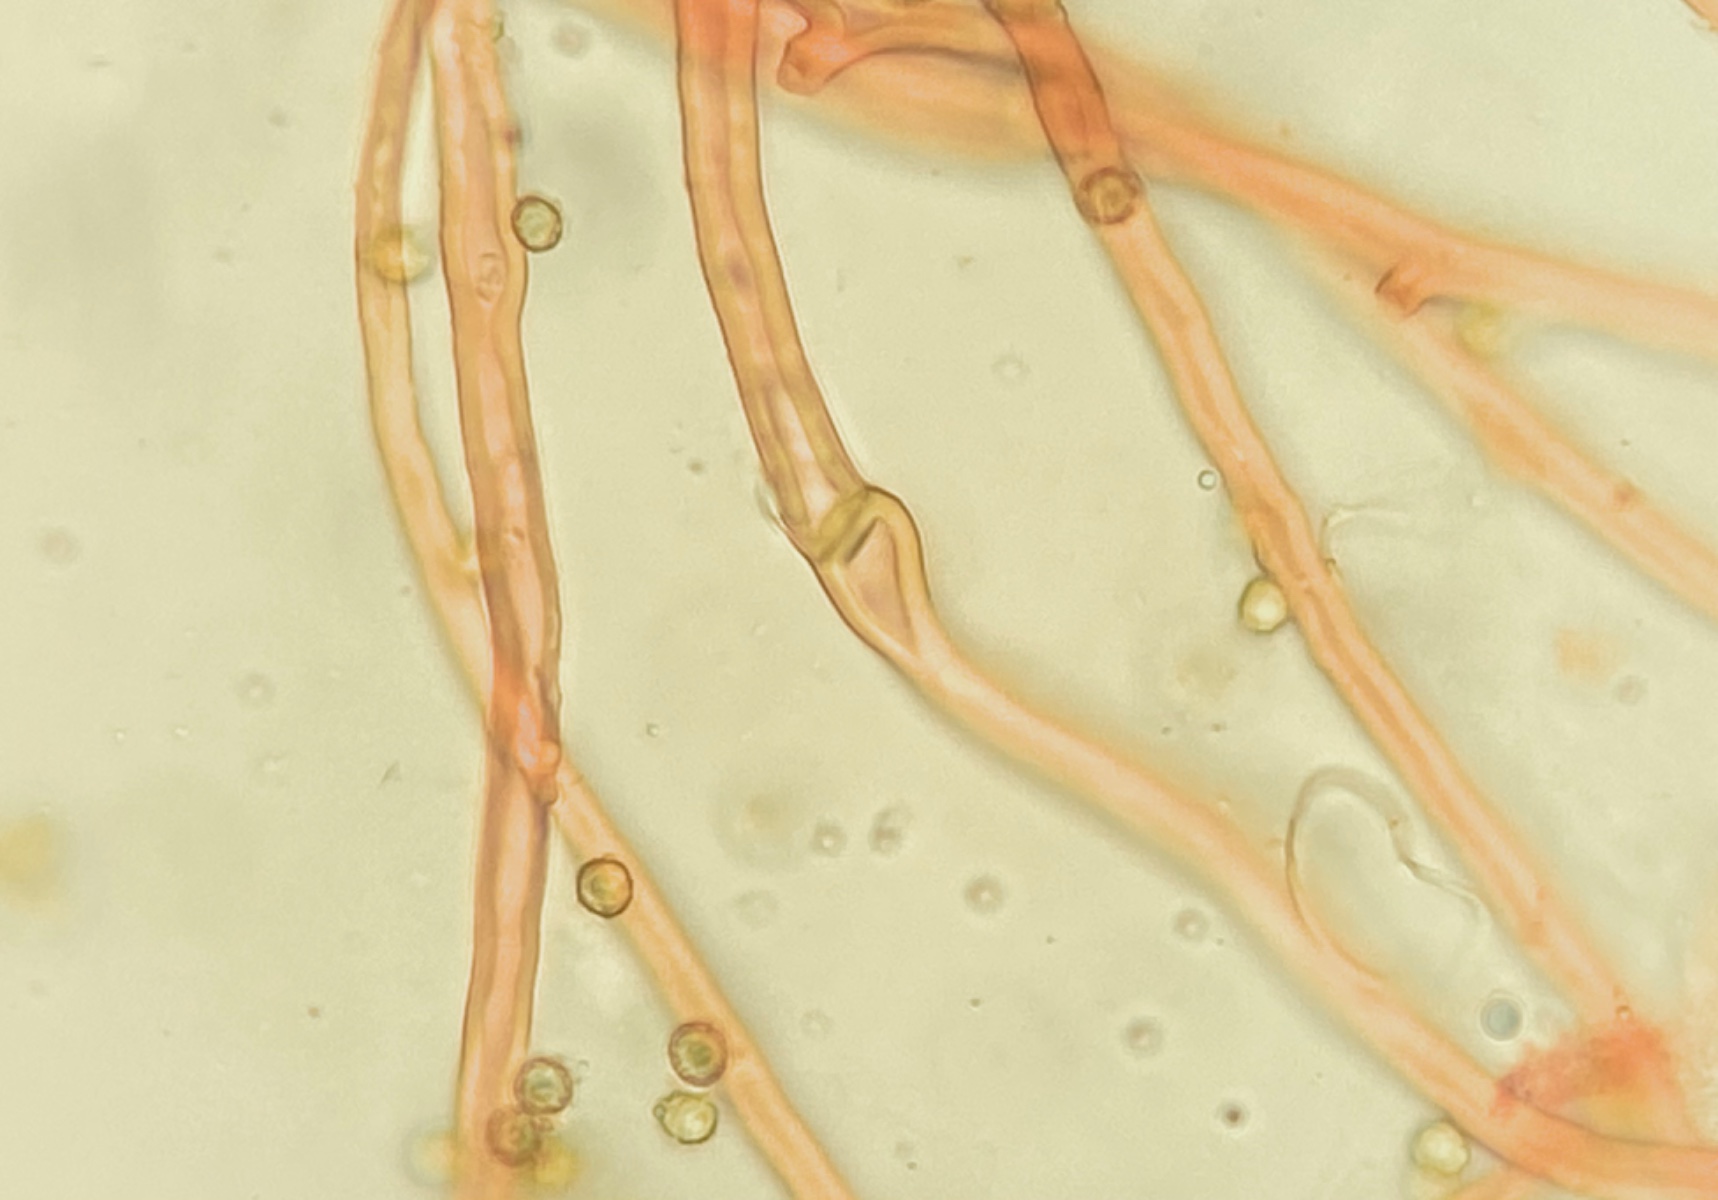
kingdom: Fungi
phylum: Basidiomycota
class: Agaricomycetes
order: Agaricales
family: Agaricaceae
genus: Tulostoma
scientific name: Tulostoma kotlabae
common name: gråhvid stilkbovist
